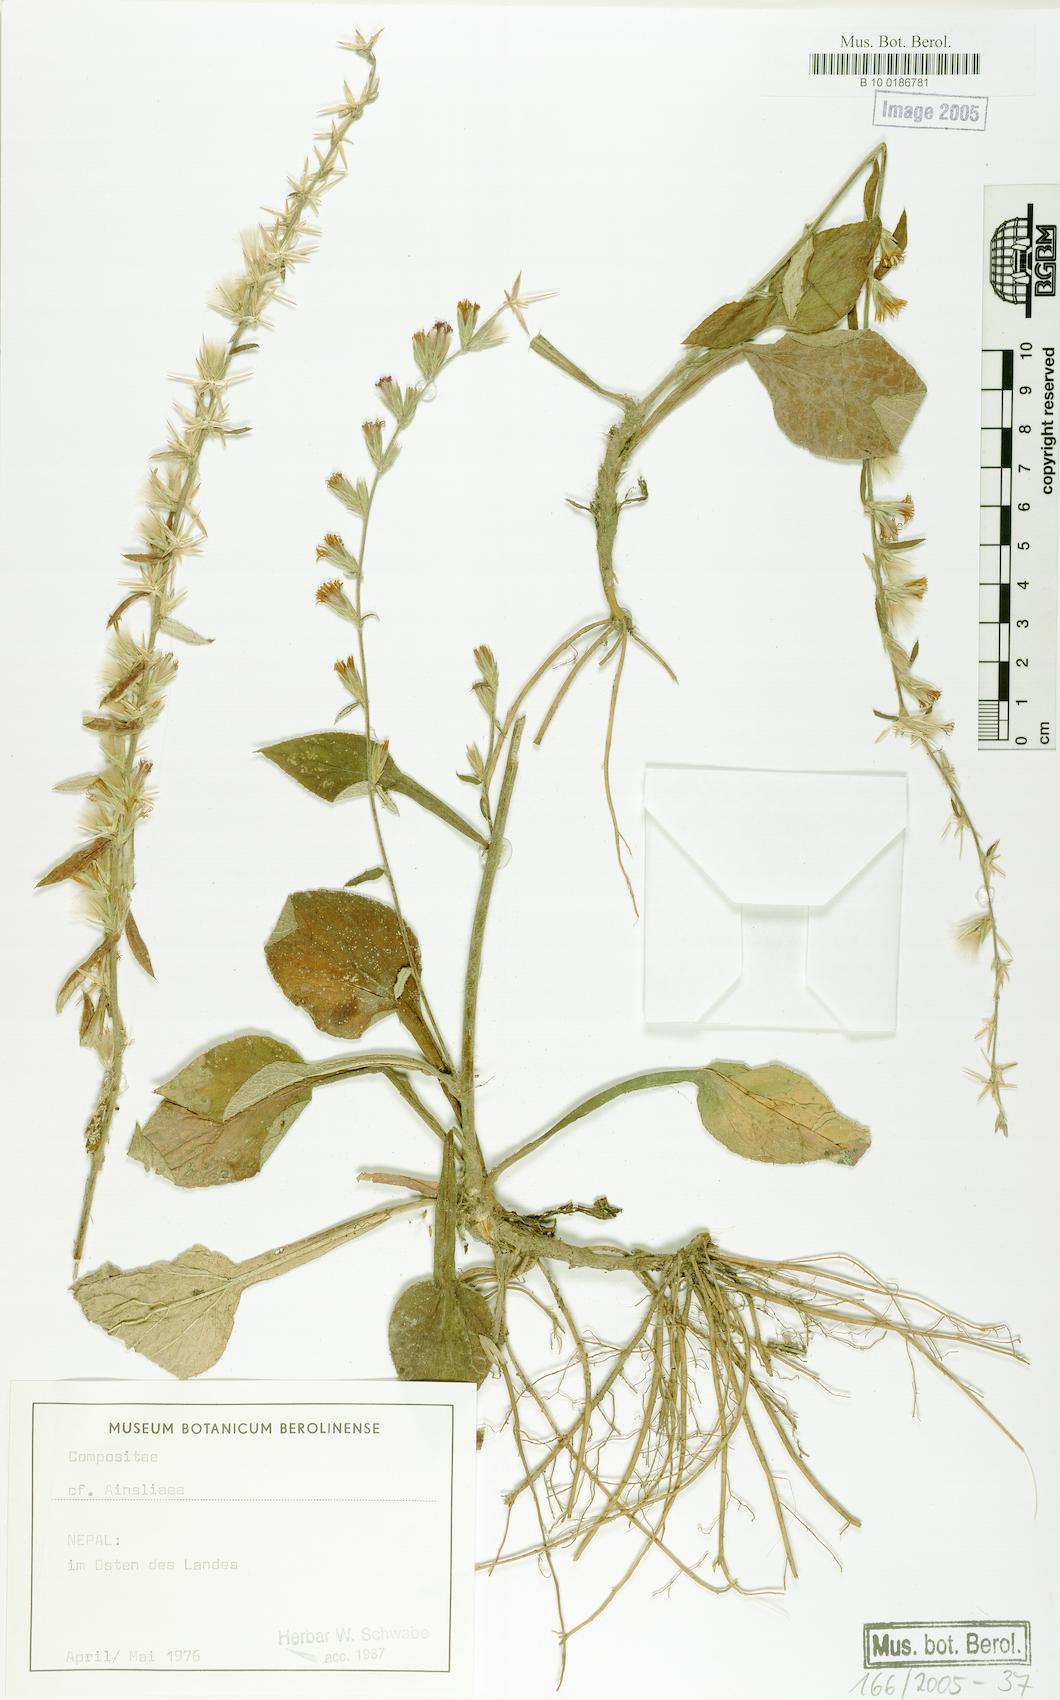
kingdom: Plantae
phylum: Tracheophyta
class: Magnoliopsida
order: Asterales
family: Asteraceae
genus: Ainsliaea
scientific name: Ainsliaea
